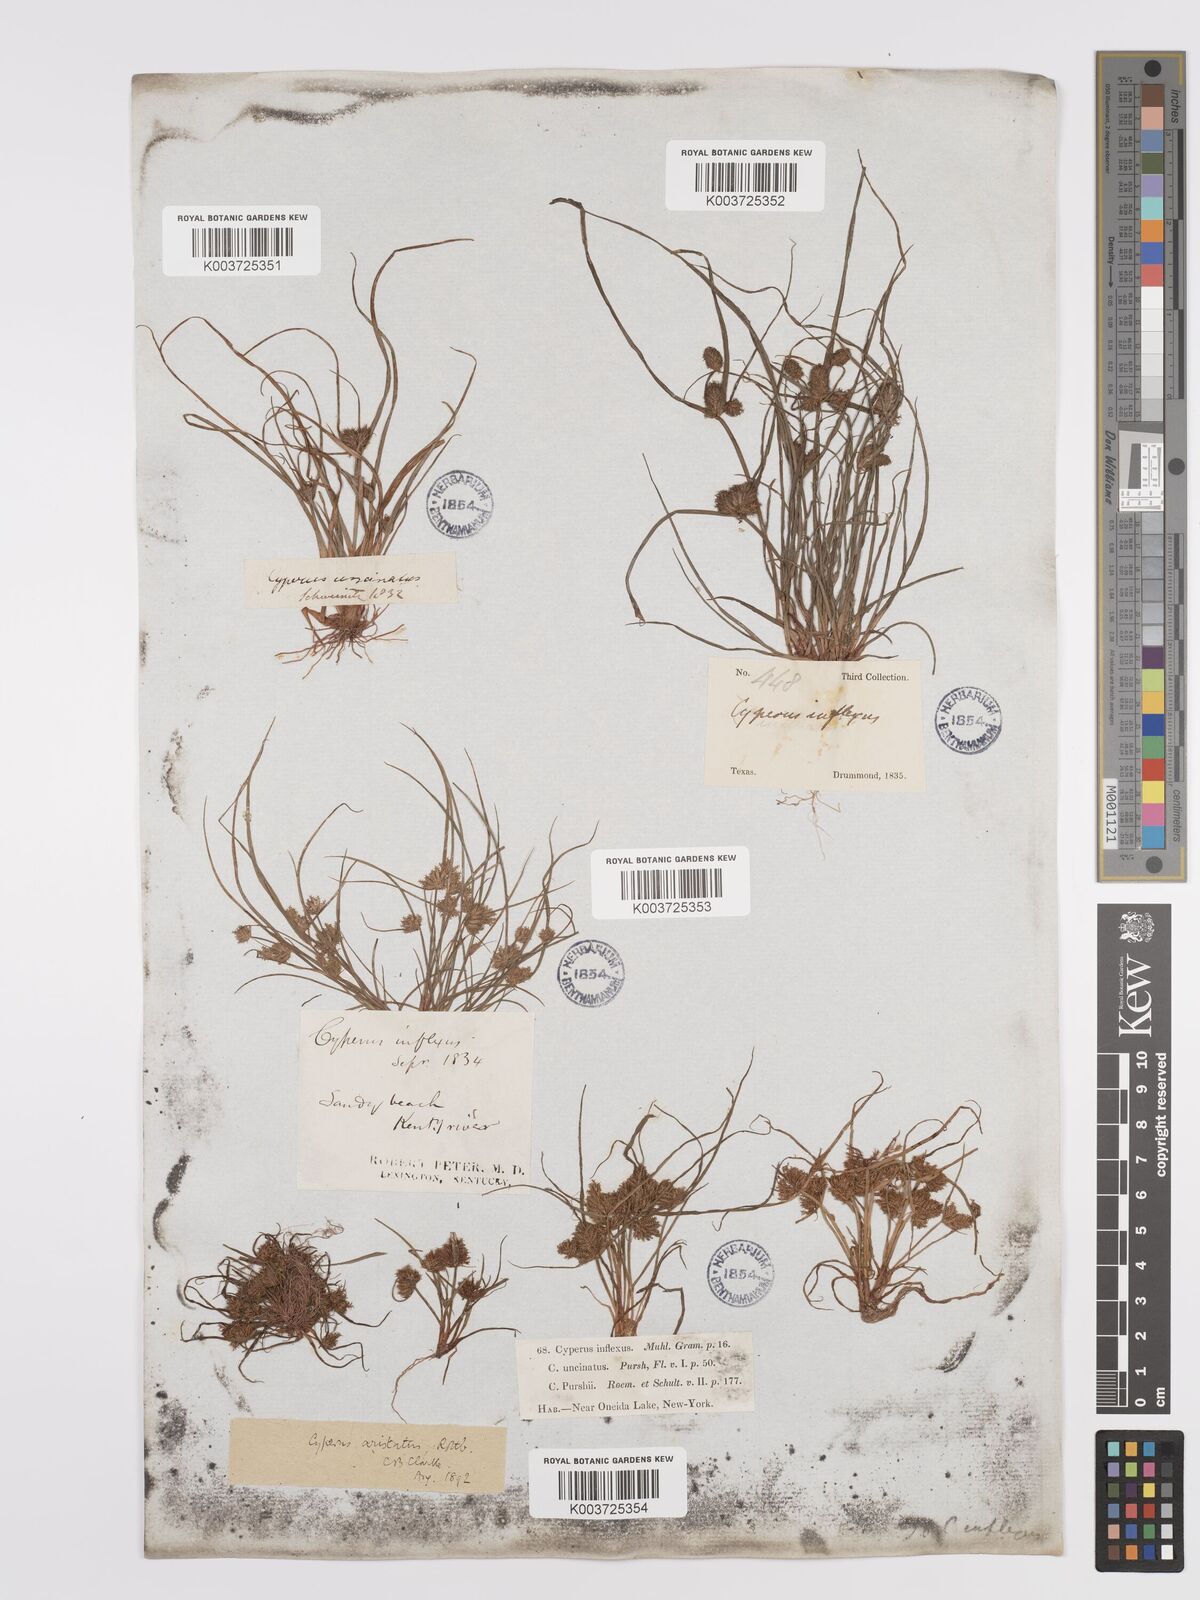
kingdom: Plantae
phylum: Tracheophyta
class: Liliopsida
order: Poales
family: Cyperaceae
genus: Cyperus
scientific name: Cyperus squarrosus
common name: Awned cyperus
